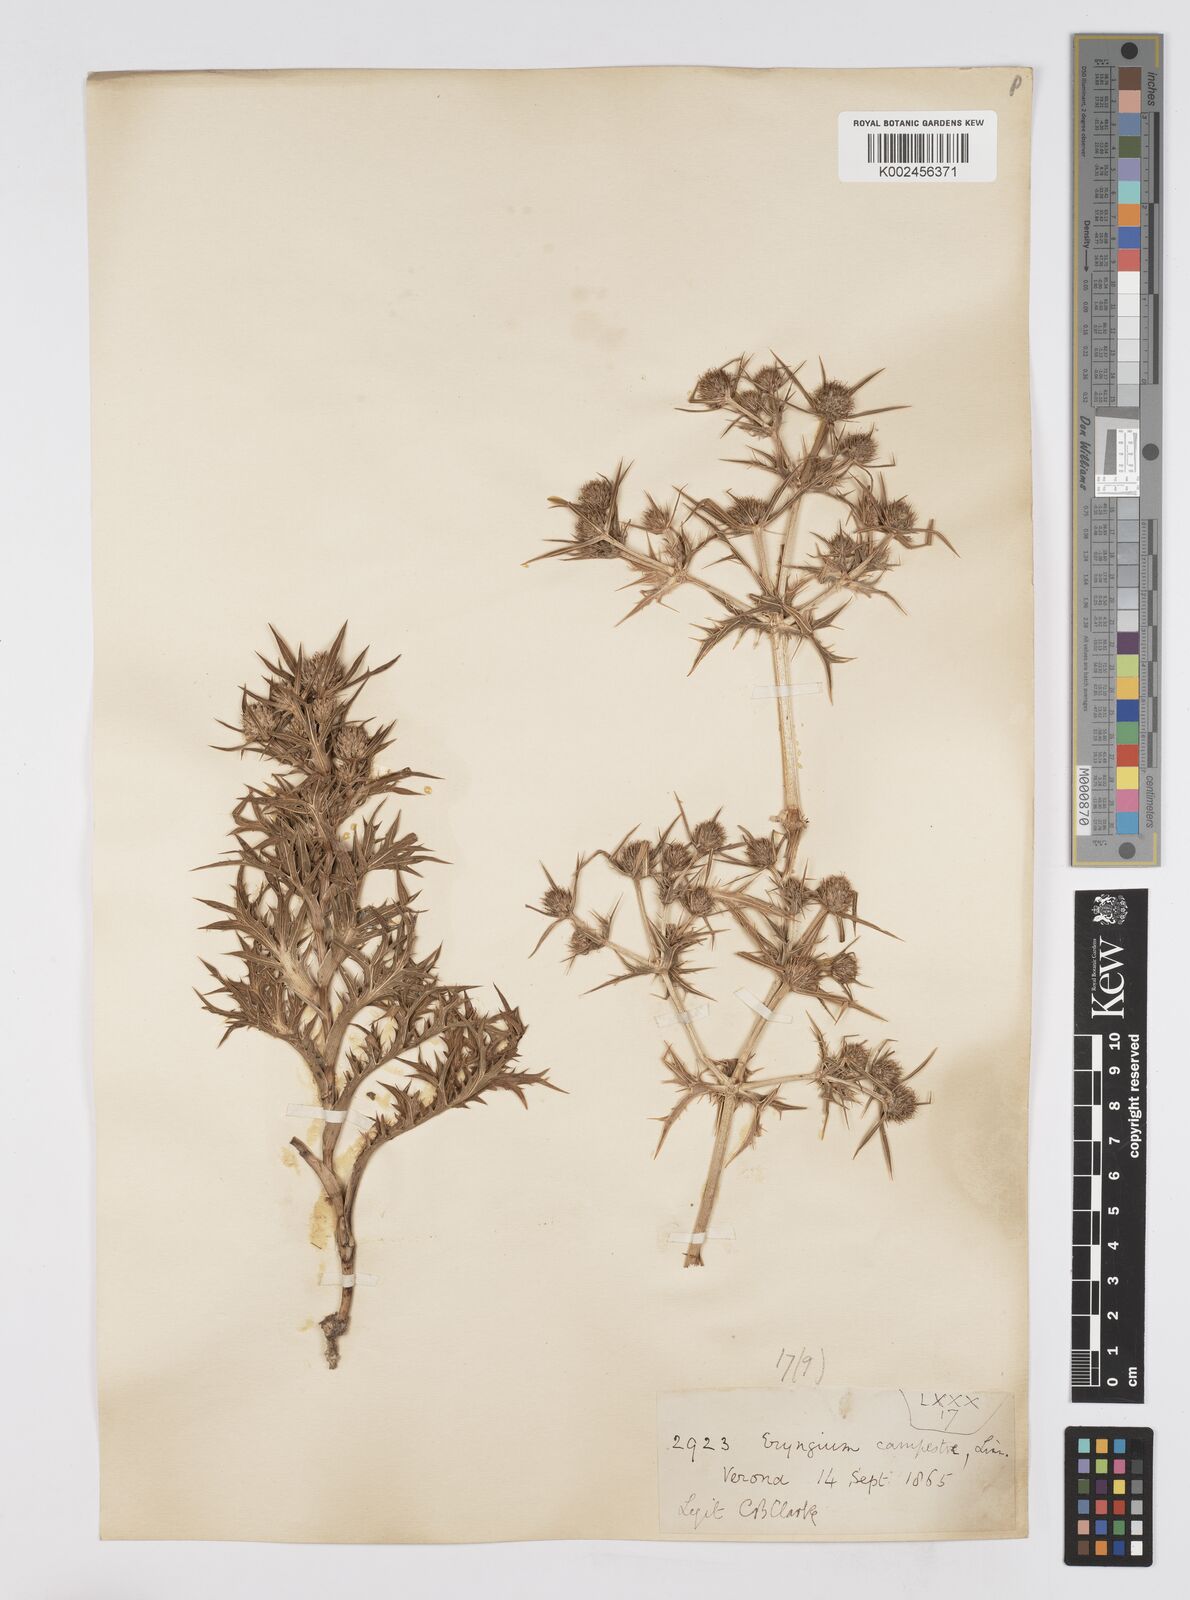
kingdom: Plantae
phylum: Tracheophyta
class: Magnoliopsida
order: Apiales
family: Apiaceae
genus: Eryngium
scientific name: Eryngium campestre
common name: Field eryngo
